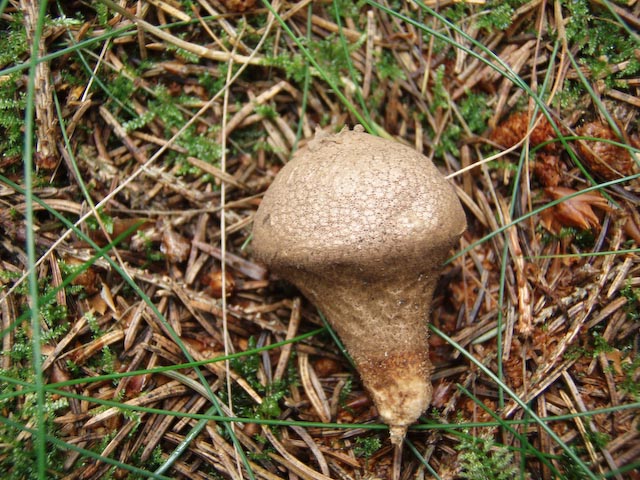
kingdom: Fungi
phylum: Basidiomycota
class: Agaricomycetes
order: Agaricales
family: Lycoperdaceae
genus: Lycoperdon
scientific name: Lycoperdon nigrescens
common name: sortagtig støvbold
